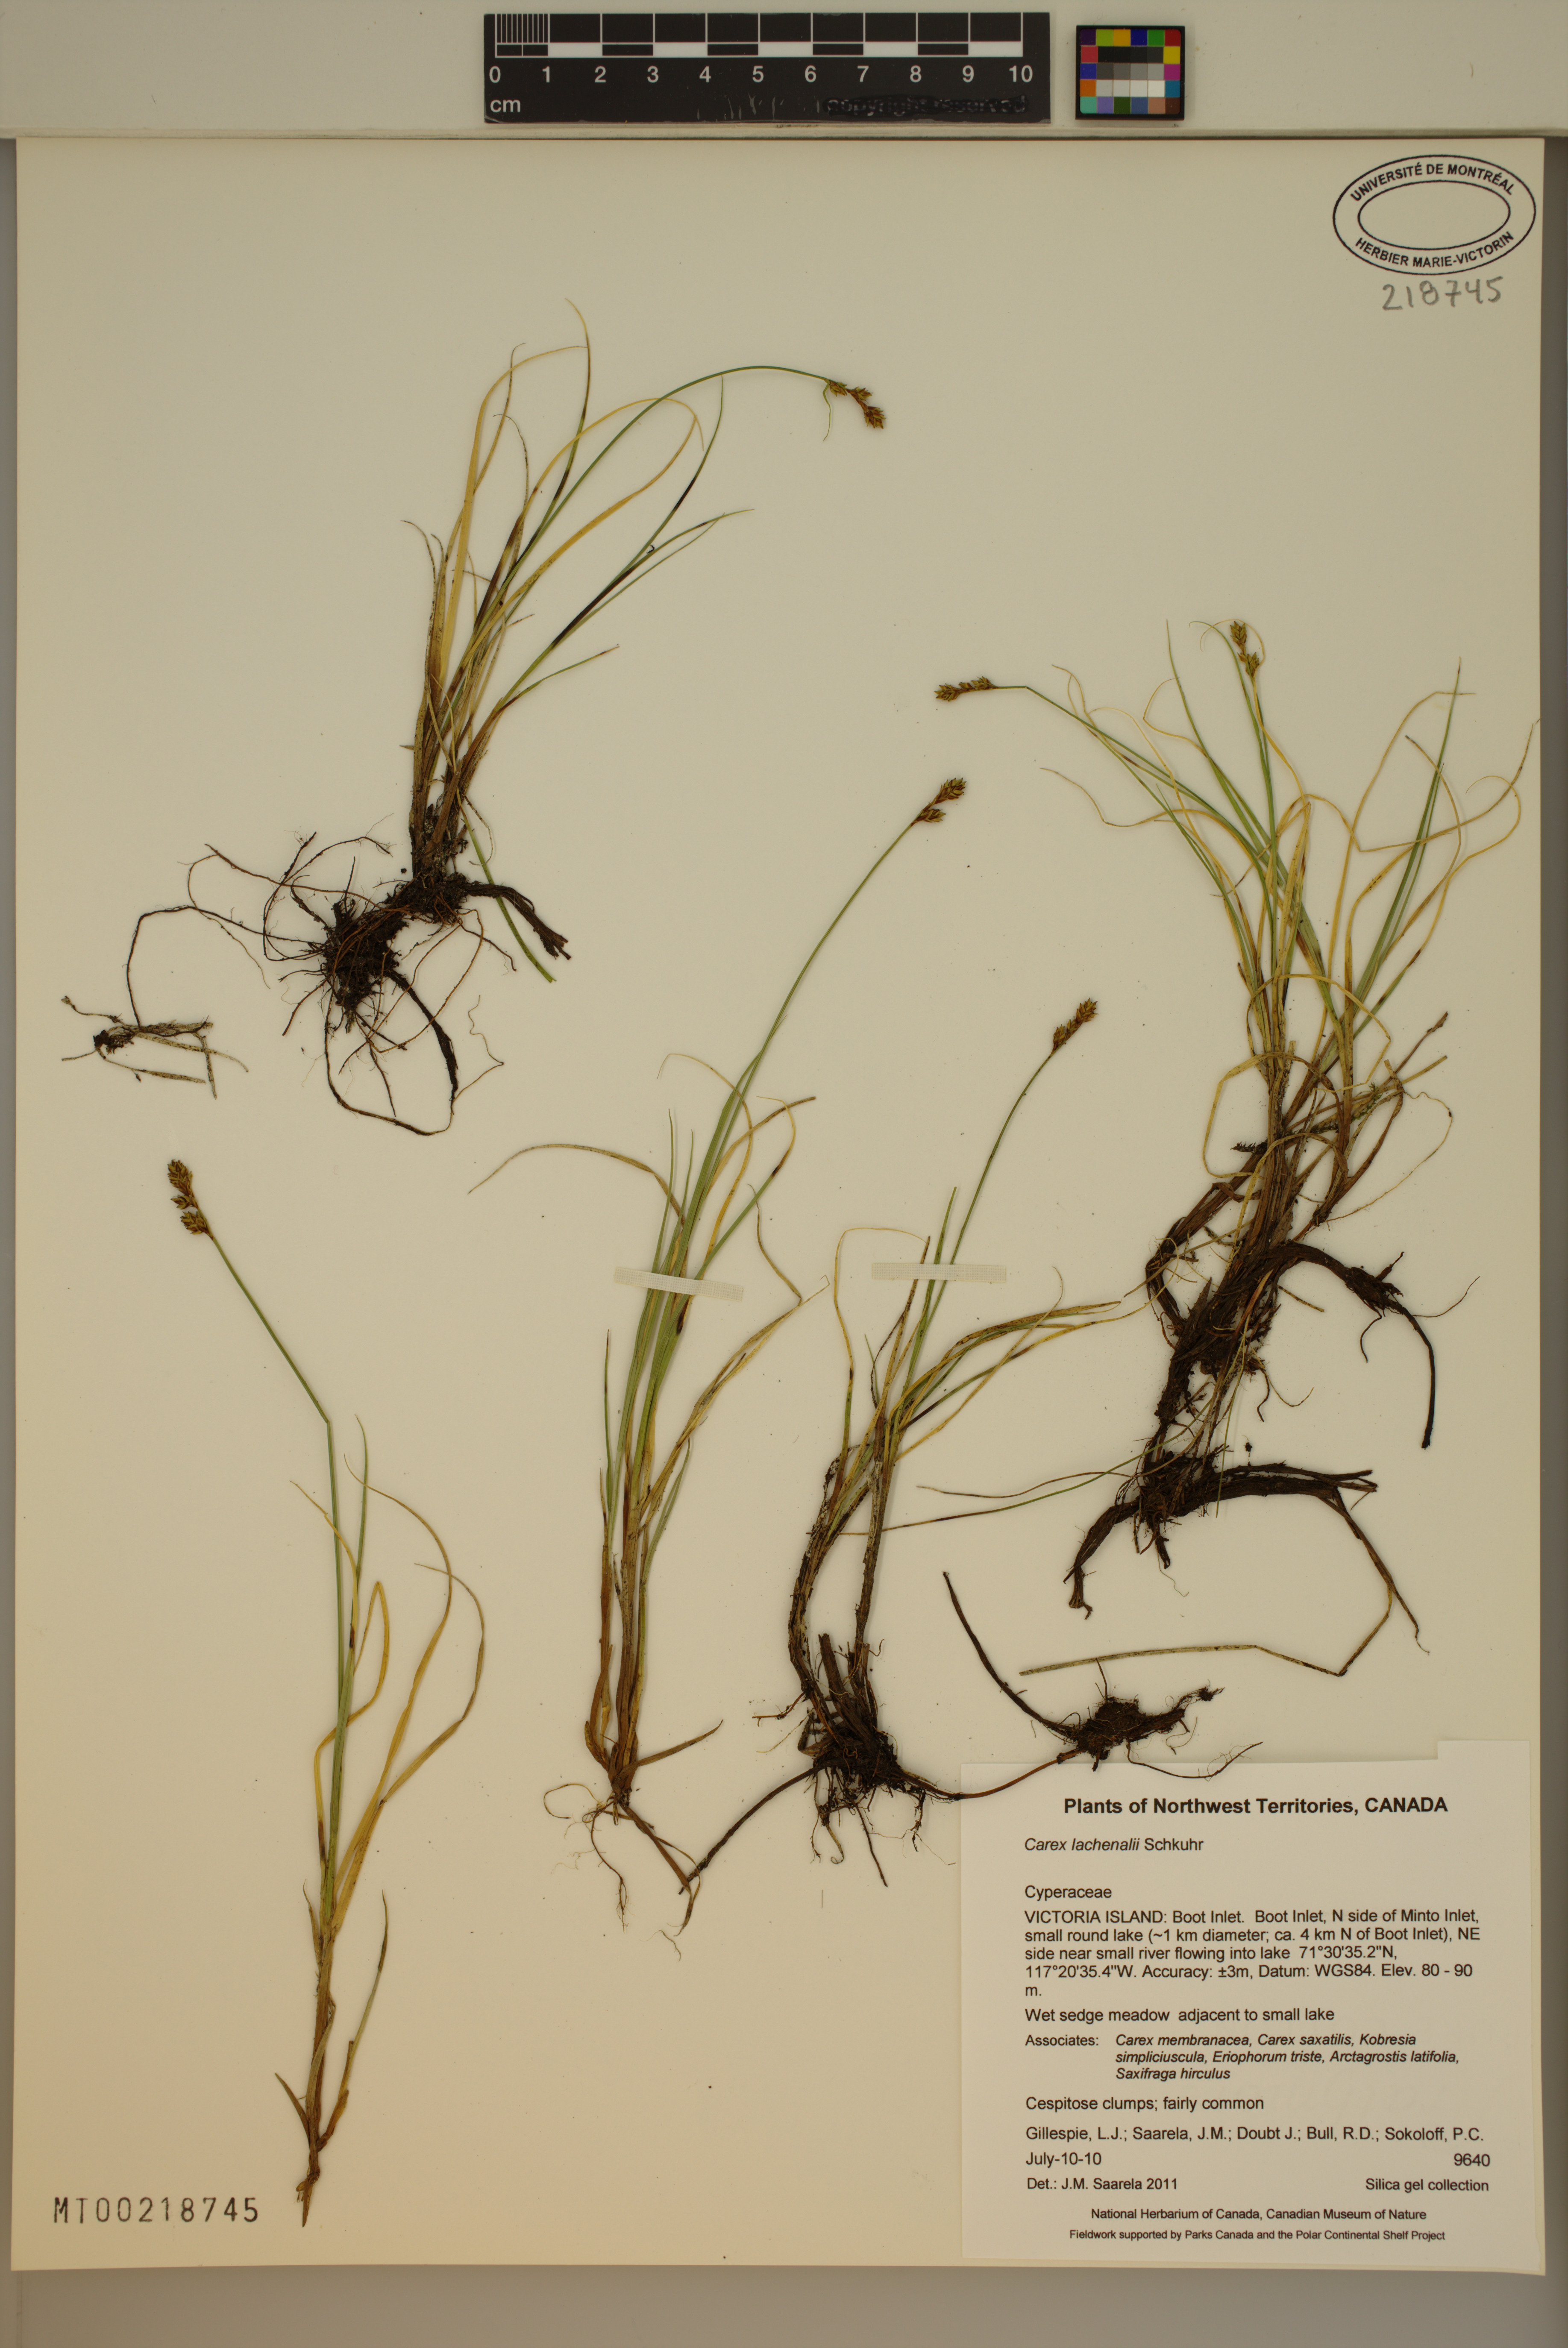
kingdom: Plantae
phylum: Tracheophyta
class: Liliopsida
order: Poales
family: Cyperaceae
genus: Carex
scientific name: Carex lachenalii
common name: Hare's-foot sedge
